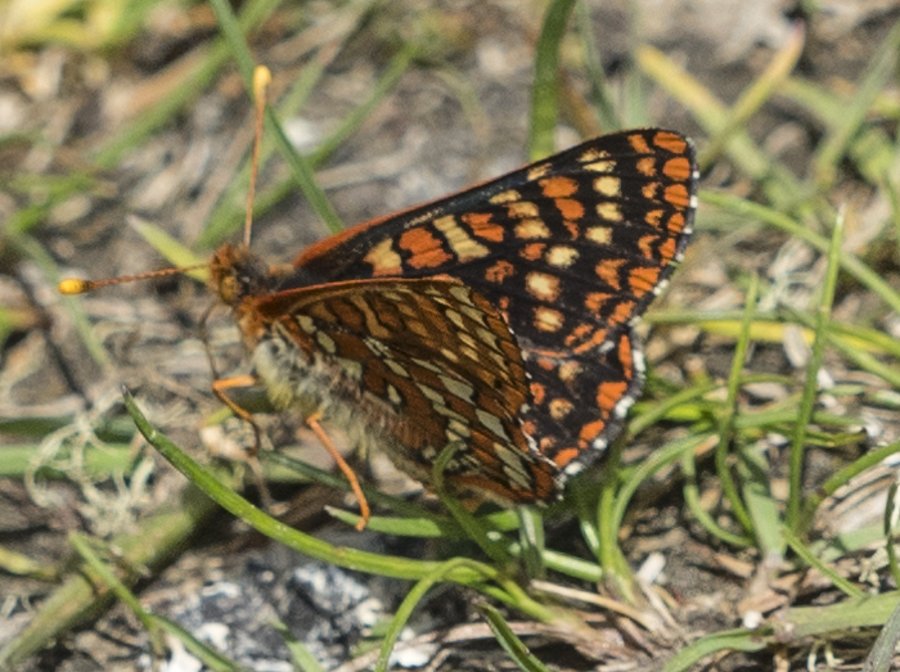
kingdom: Animalia
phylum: Arthropoda
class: Insecta
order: Lepidoptera
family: Nymphalidae
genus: Occidryas
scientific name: Occidryas anicia
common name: Anicia Checkerspot
